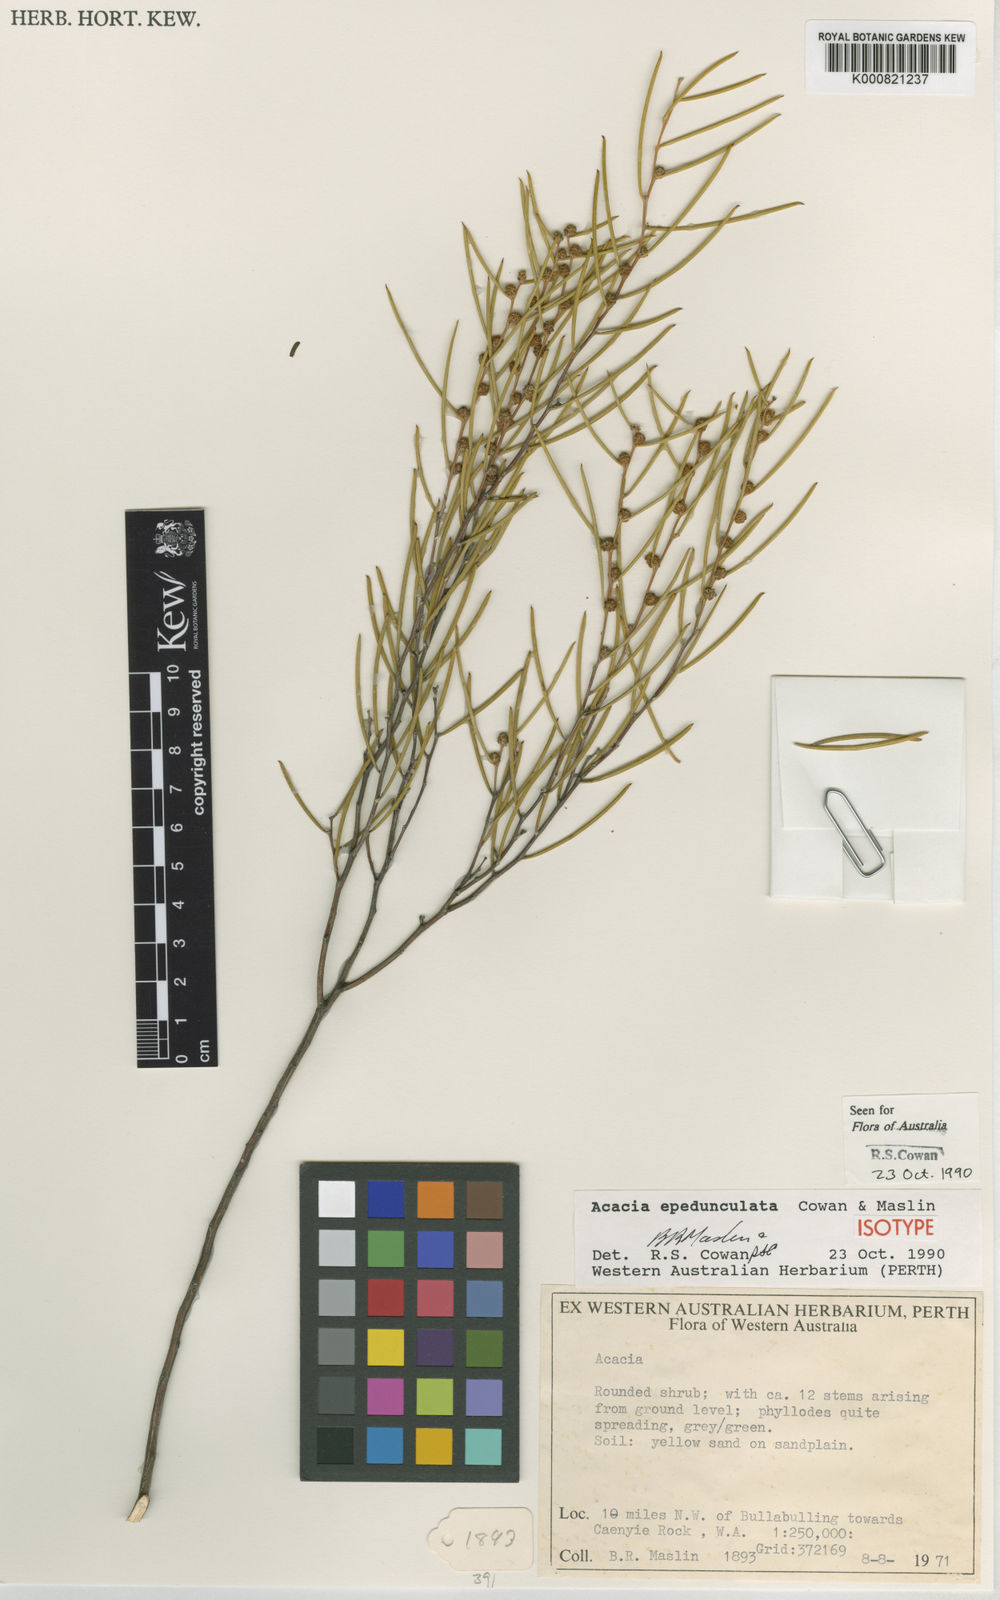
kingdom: Plantae
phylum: Tracheophyta
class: Magnoliopsida
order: Fabales
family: Fabaceae
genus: Acacia
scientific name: Acacia epedunculata
